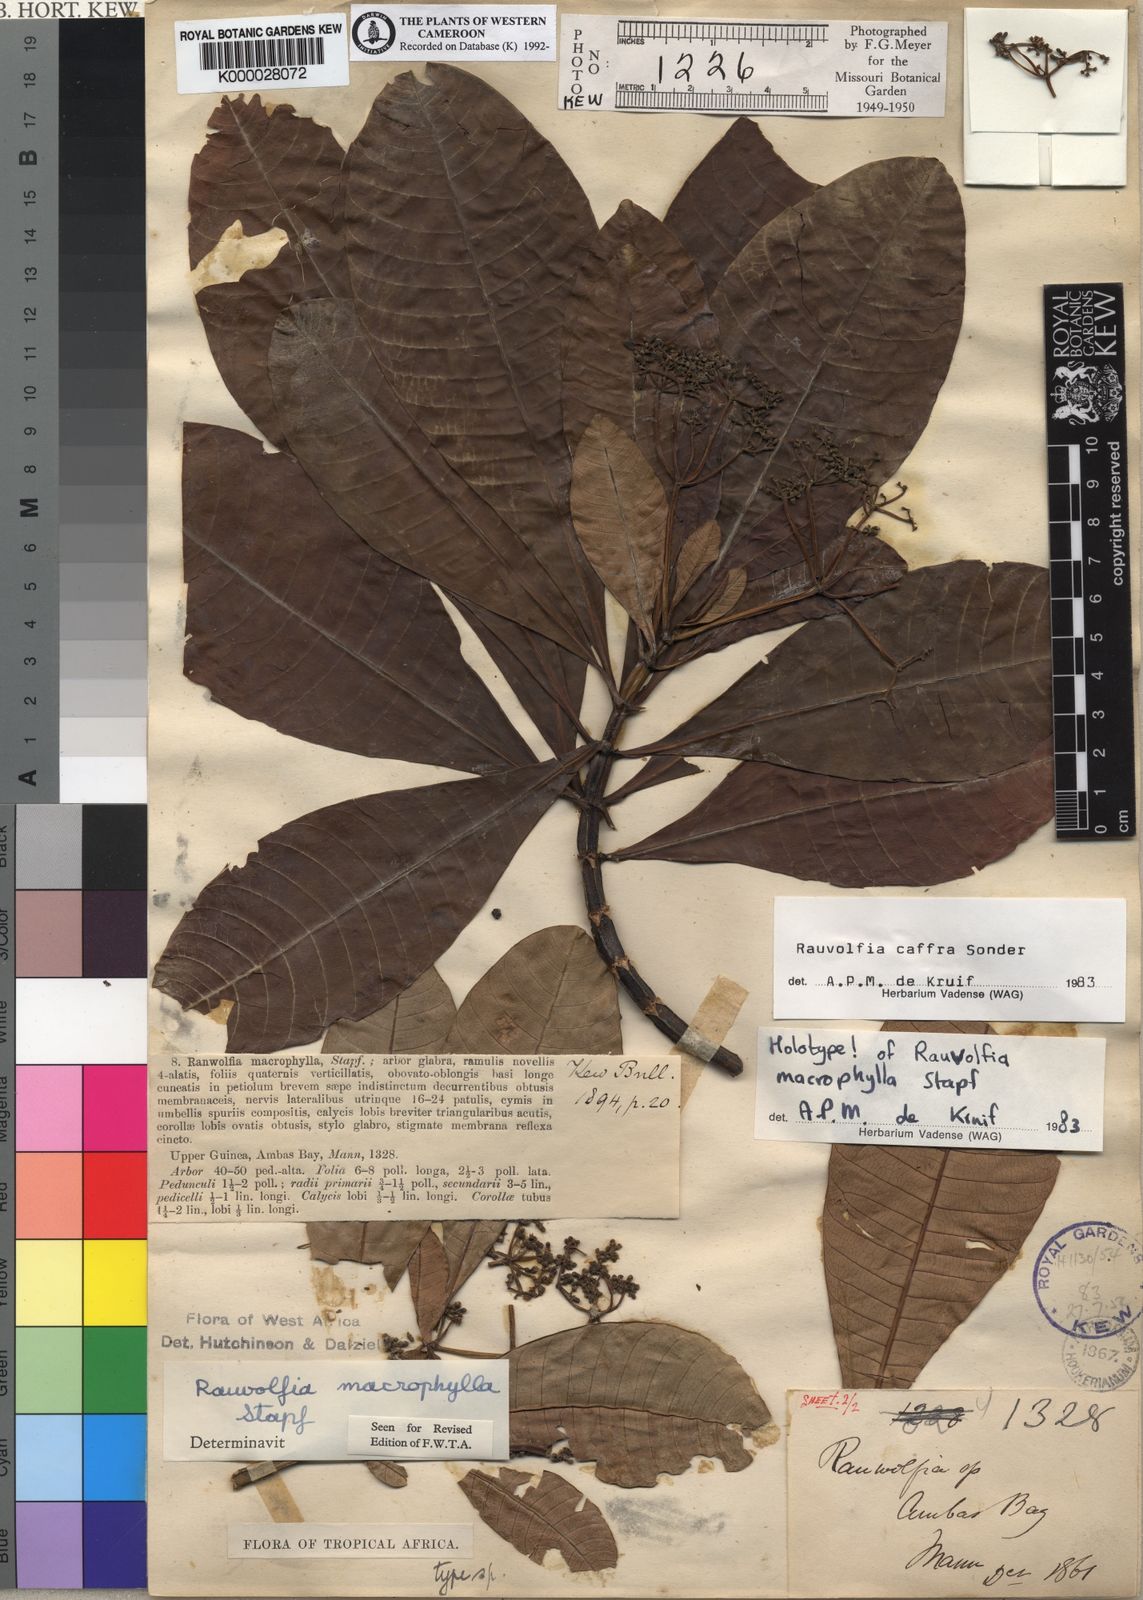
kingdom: Plantae
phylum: Tracheophyta
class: Magnoliopsida
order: Gentianales
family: Apocynaceae
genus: Rauvolfia
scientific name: Rauvolfia caffra
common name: Quininetree
